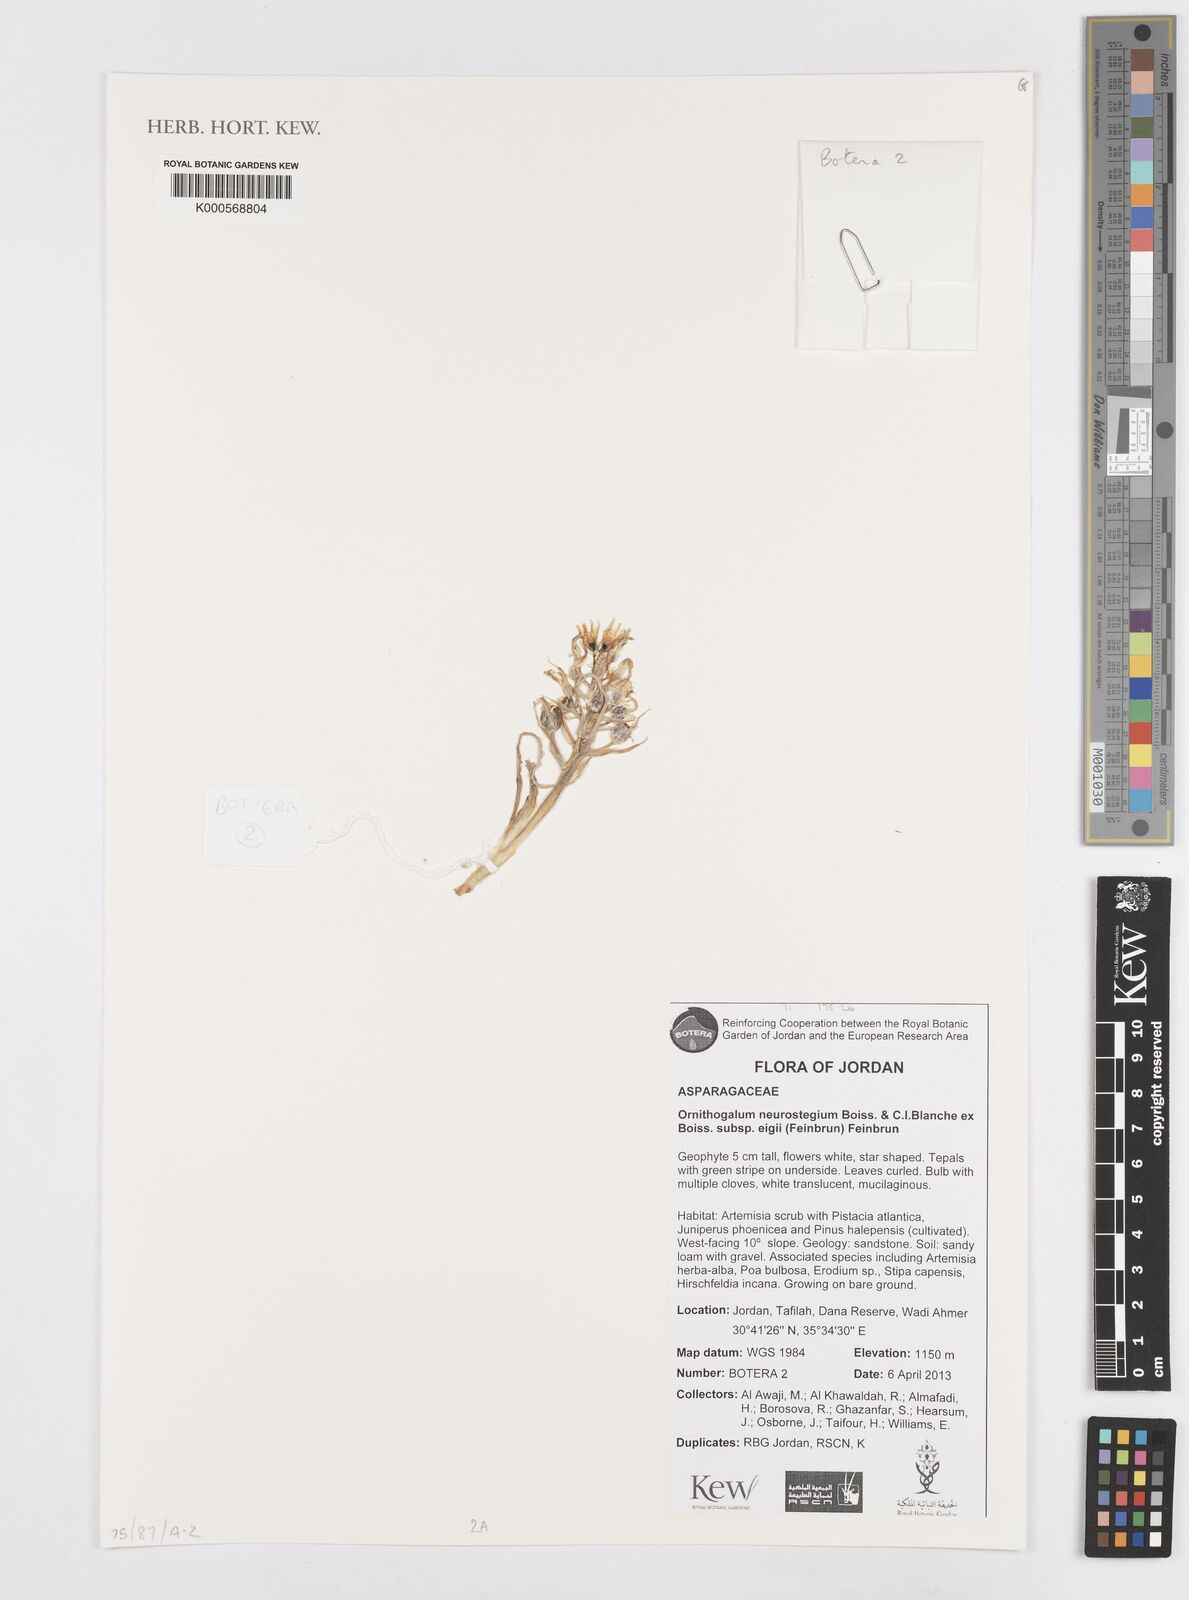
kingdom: Plantae
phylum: Tracheophyta
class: Liliopsida
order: Asparagales
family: Asparagaceae
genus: Ornithogalum
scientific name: Ornithogalum neurostegium
